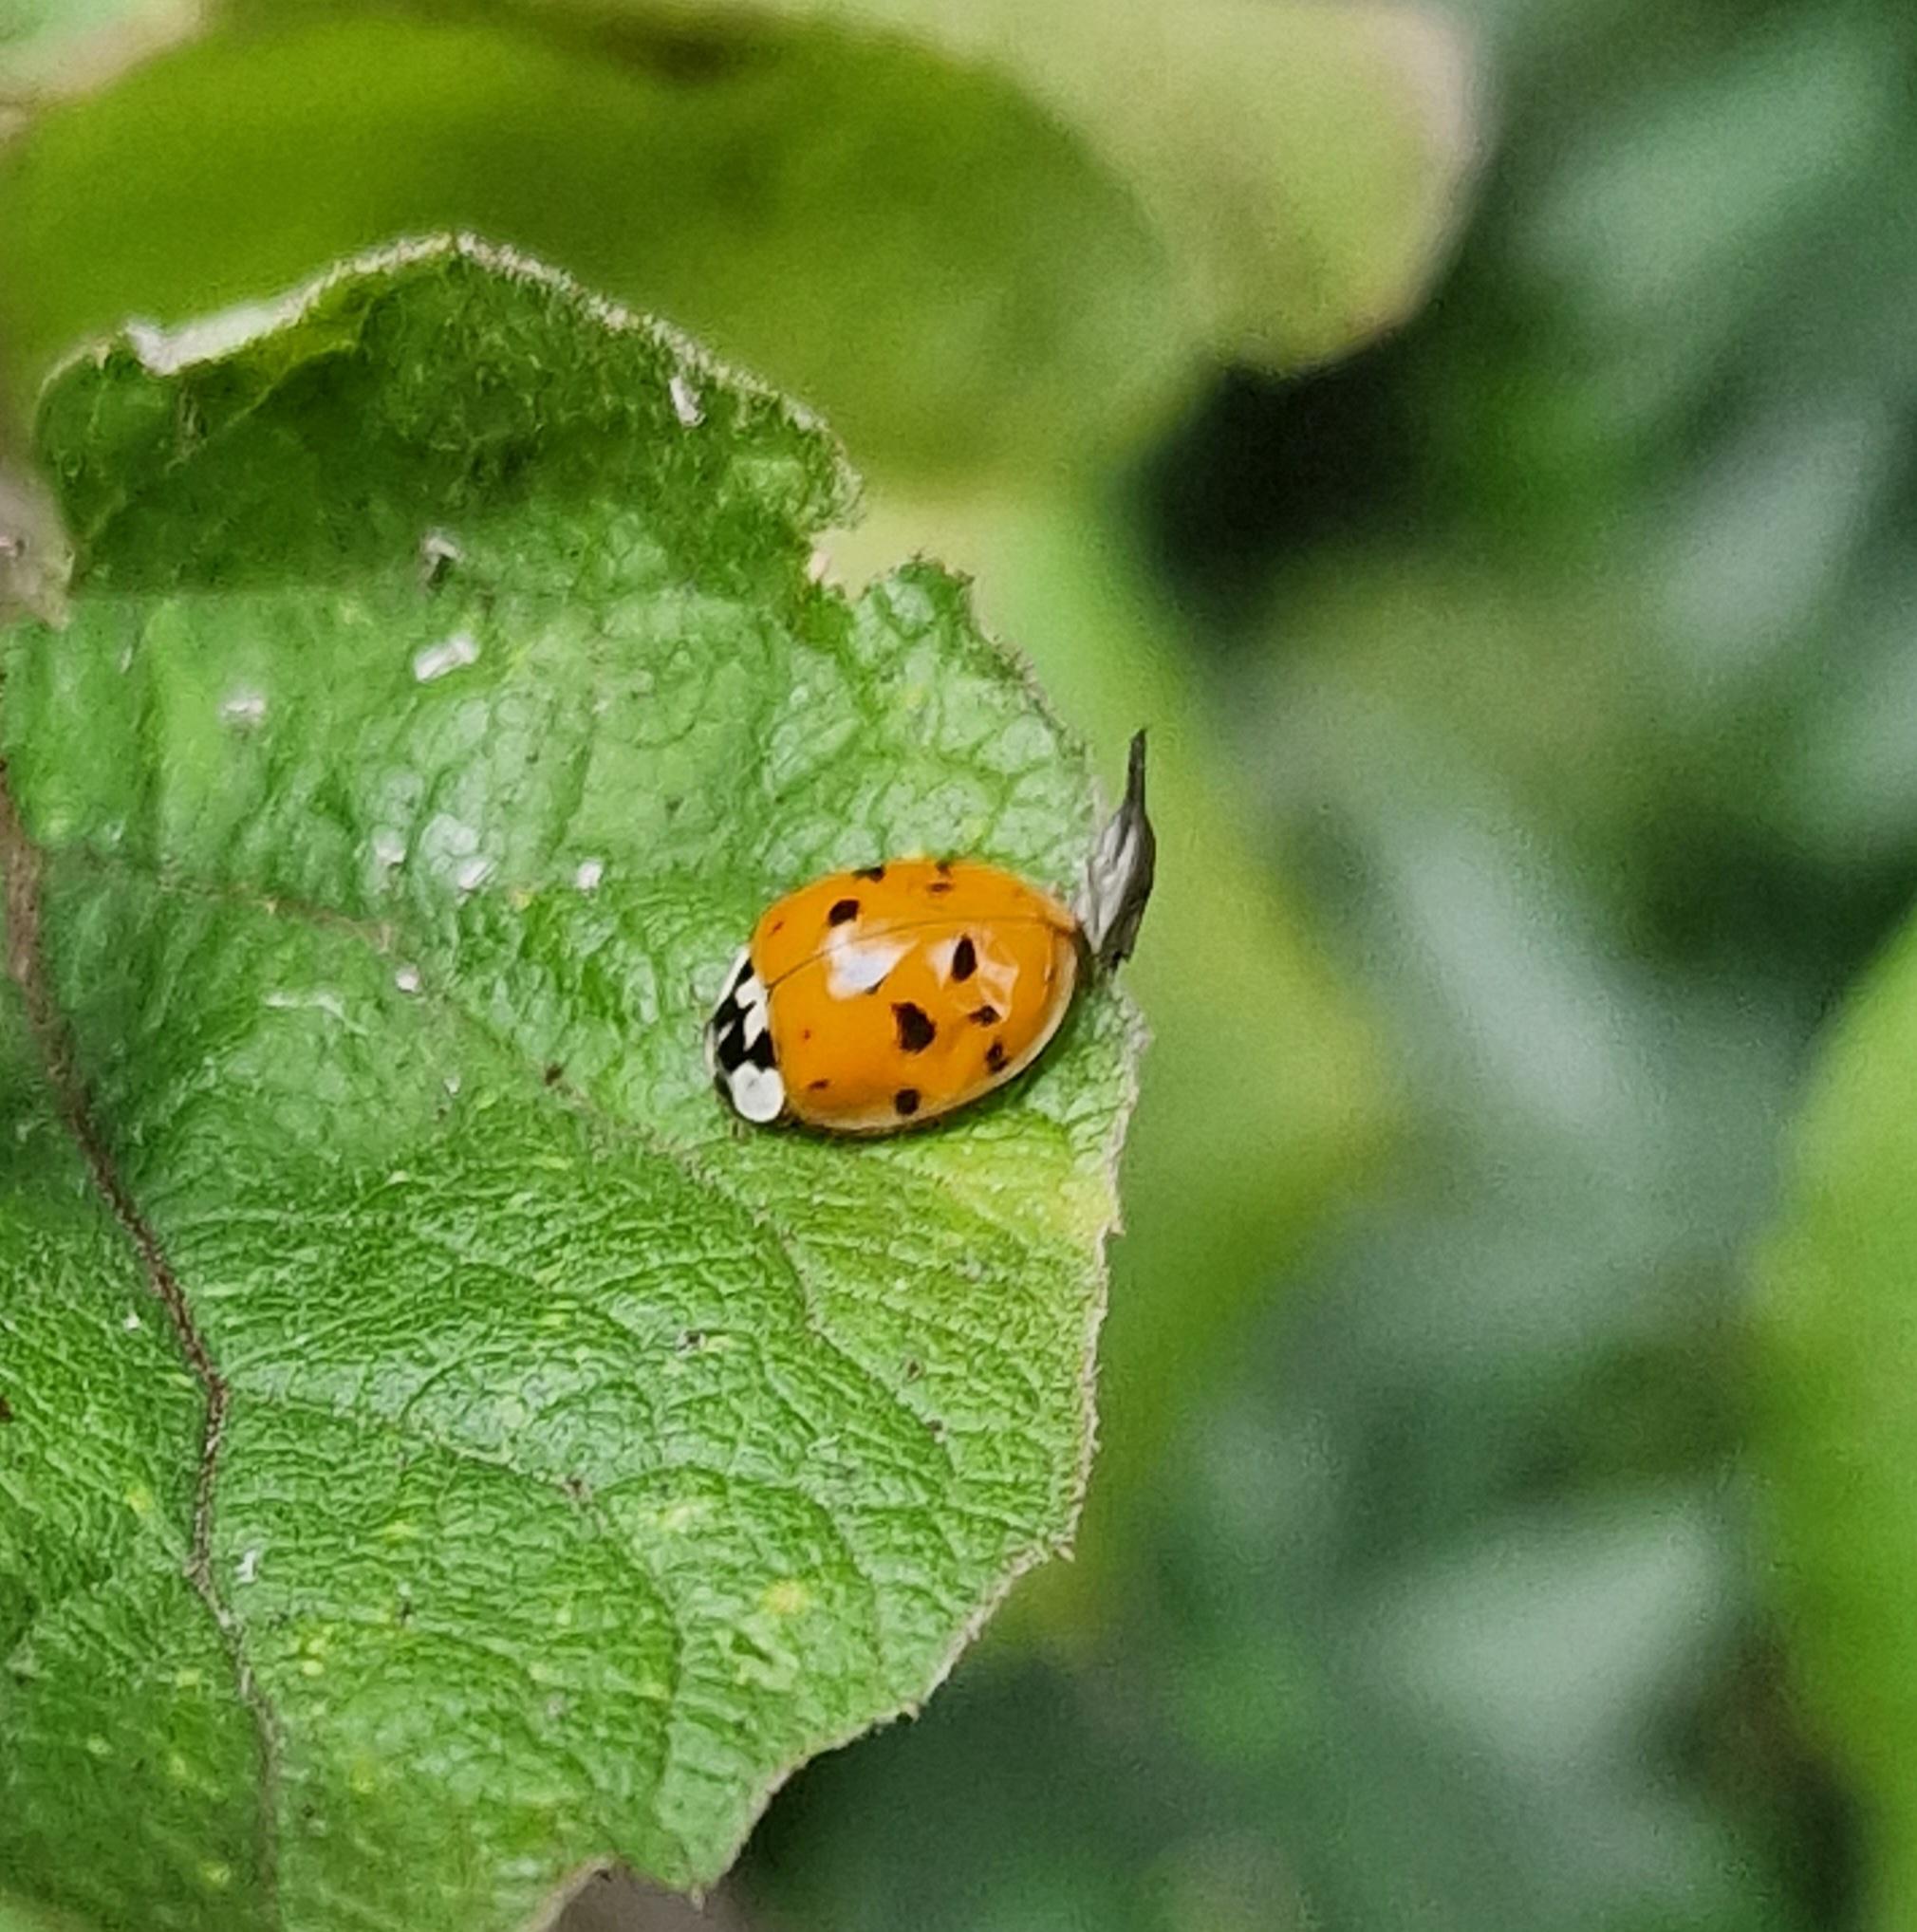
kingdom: Animalia
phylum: Arthropoda
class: Insecta
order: Coleoptera
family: Coccinellidae
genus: Harmonia
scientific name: Harmonia axyridis
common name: Harlekinmariehøne
